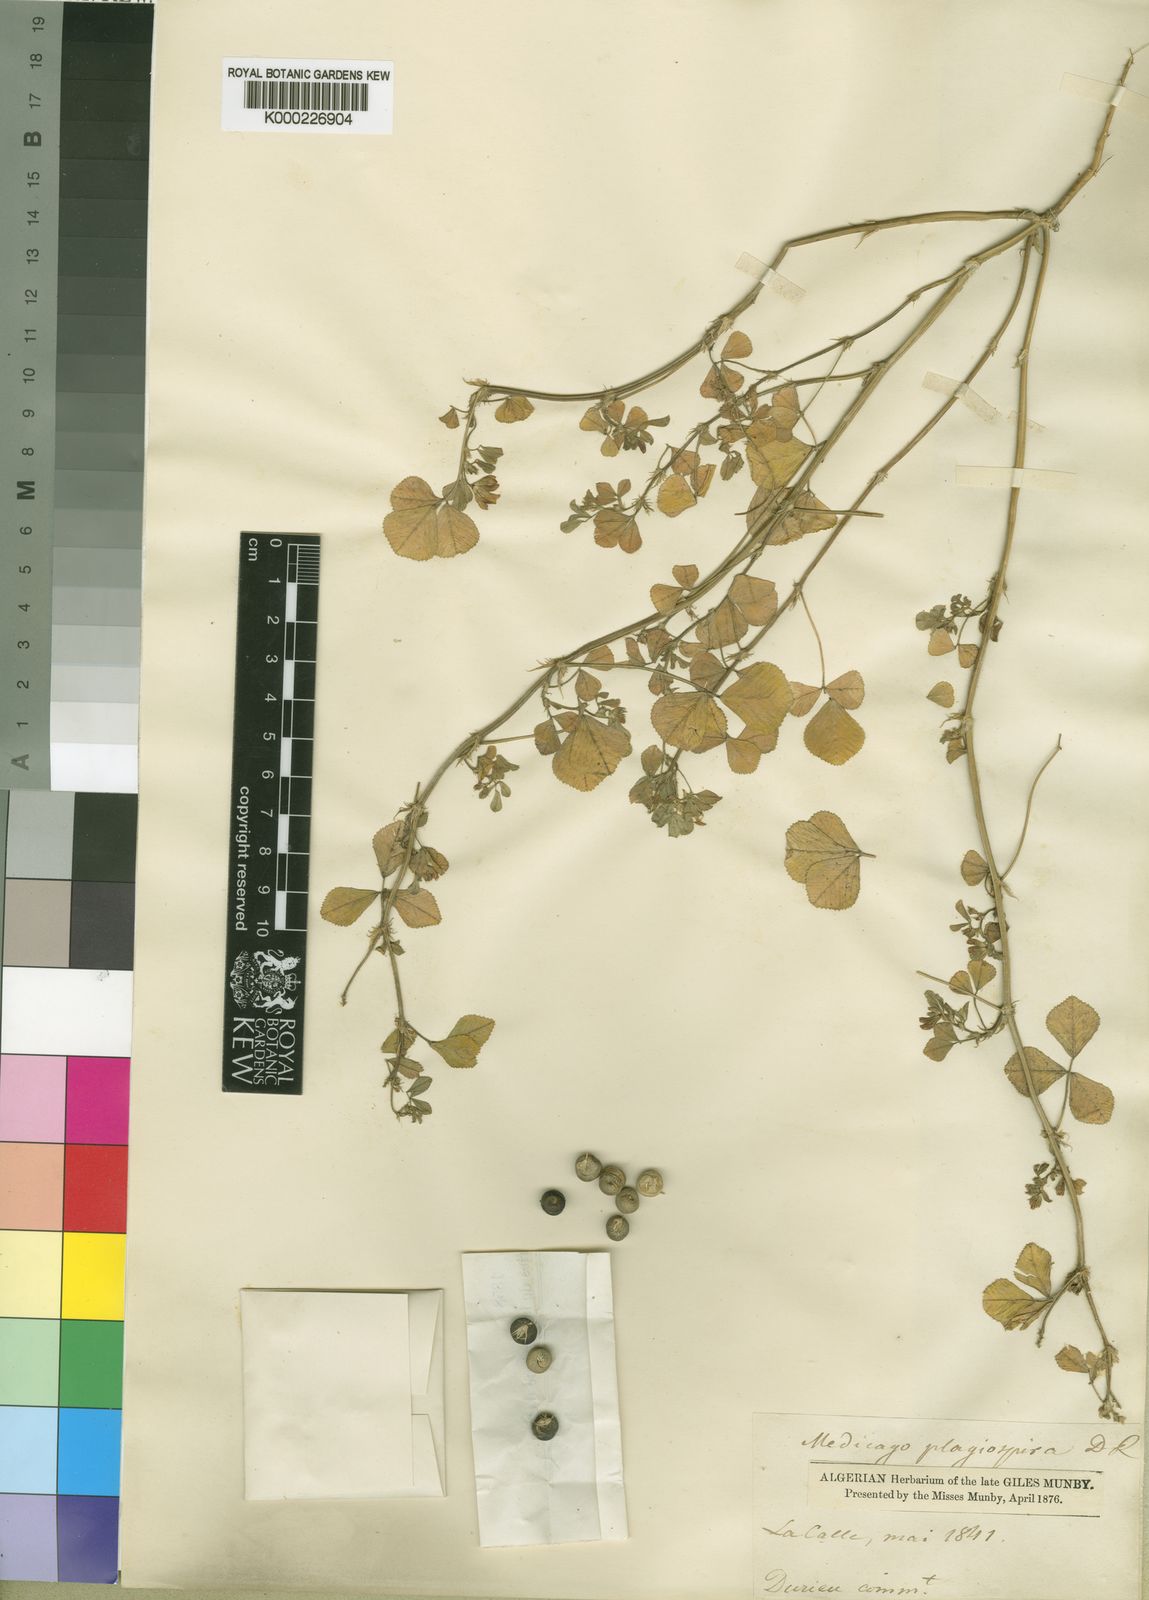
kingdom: Plantae
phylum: Tracheophyta
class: Magnoliopsida
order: Fabales
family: Fabaceae
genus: Medicago
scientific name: Medicago soleirolii
